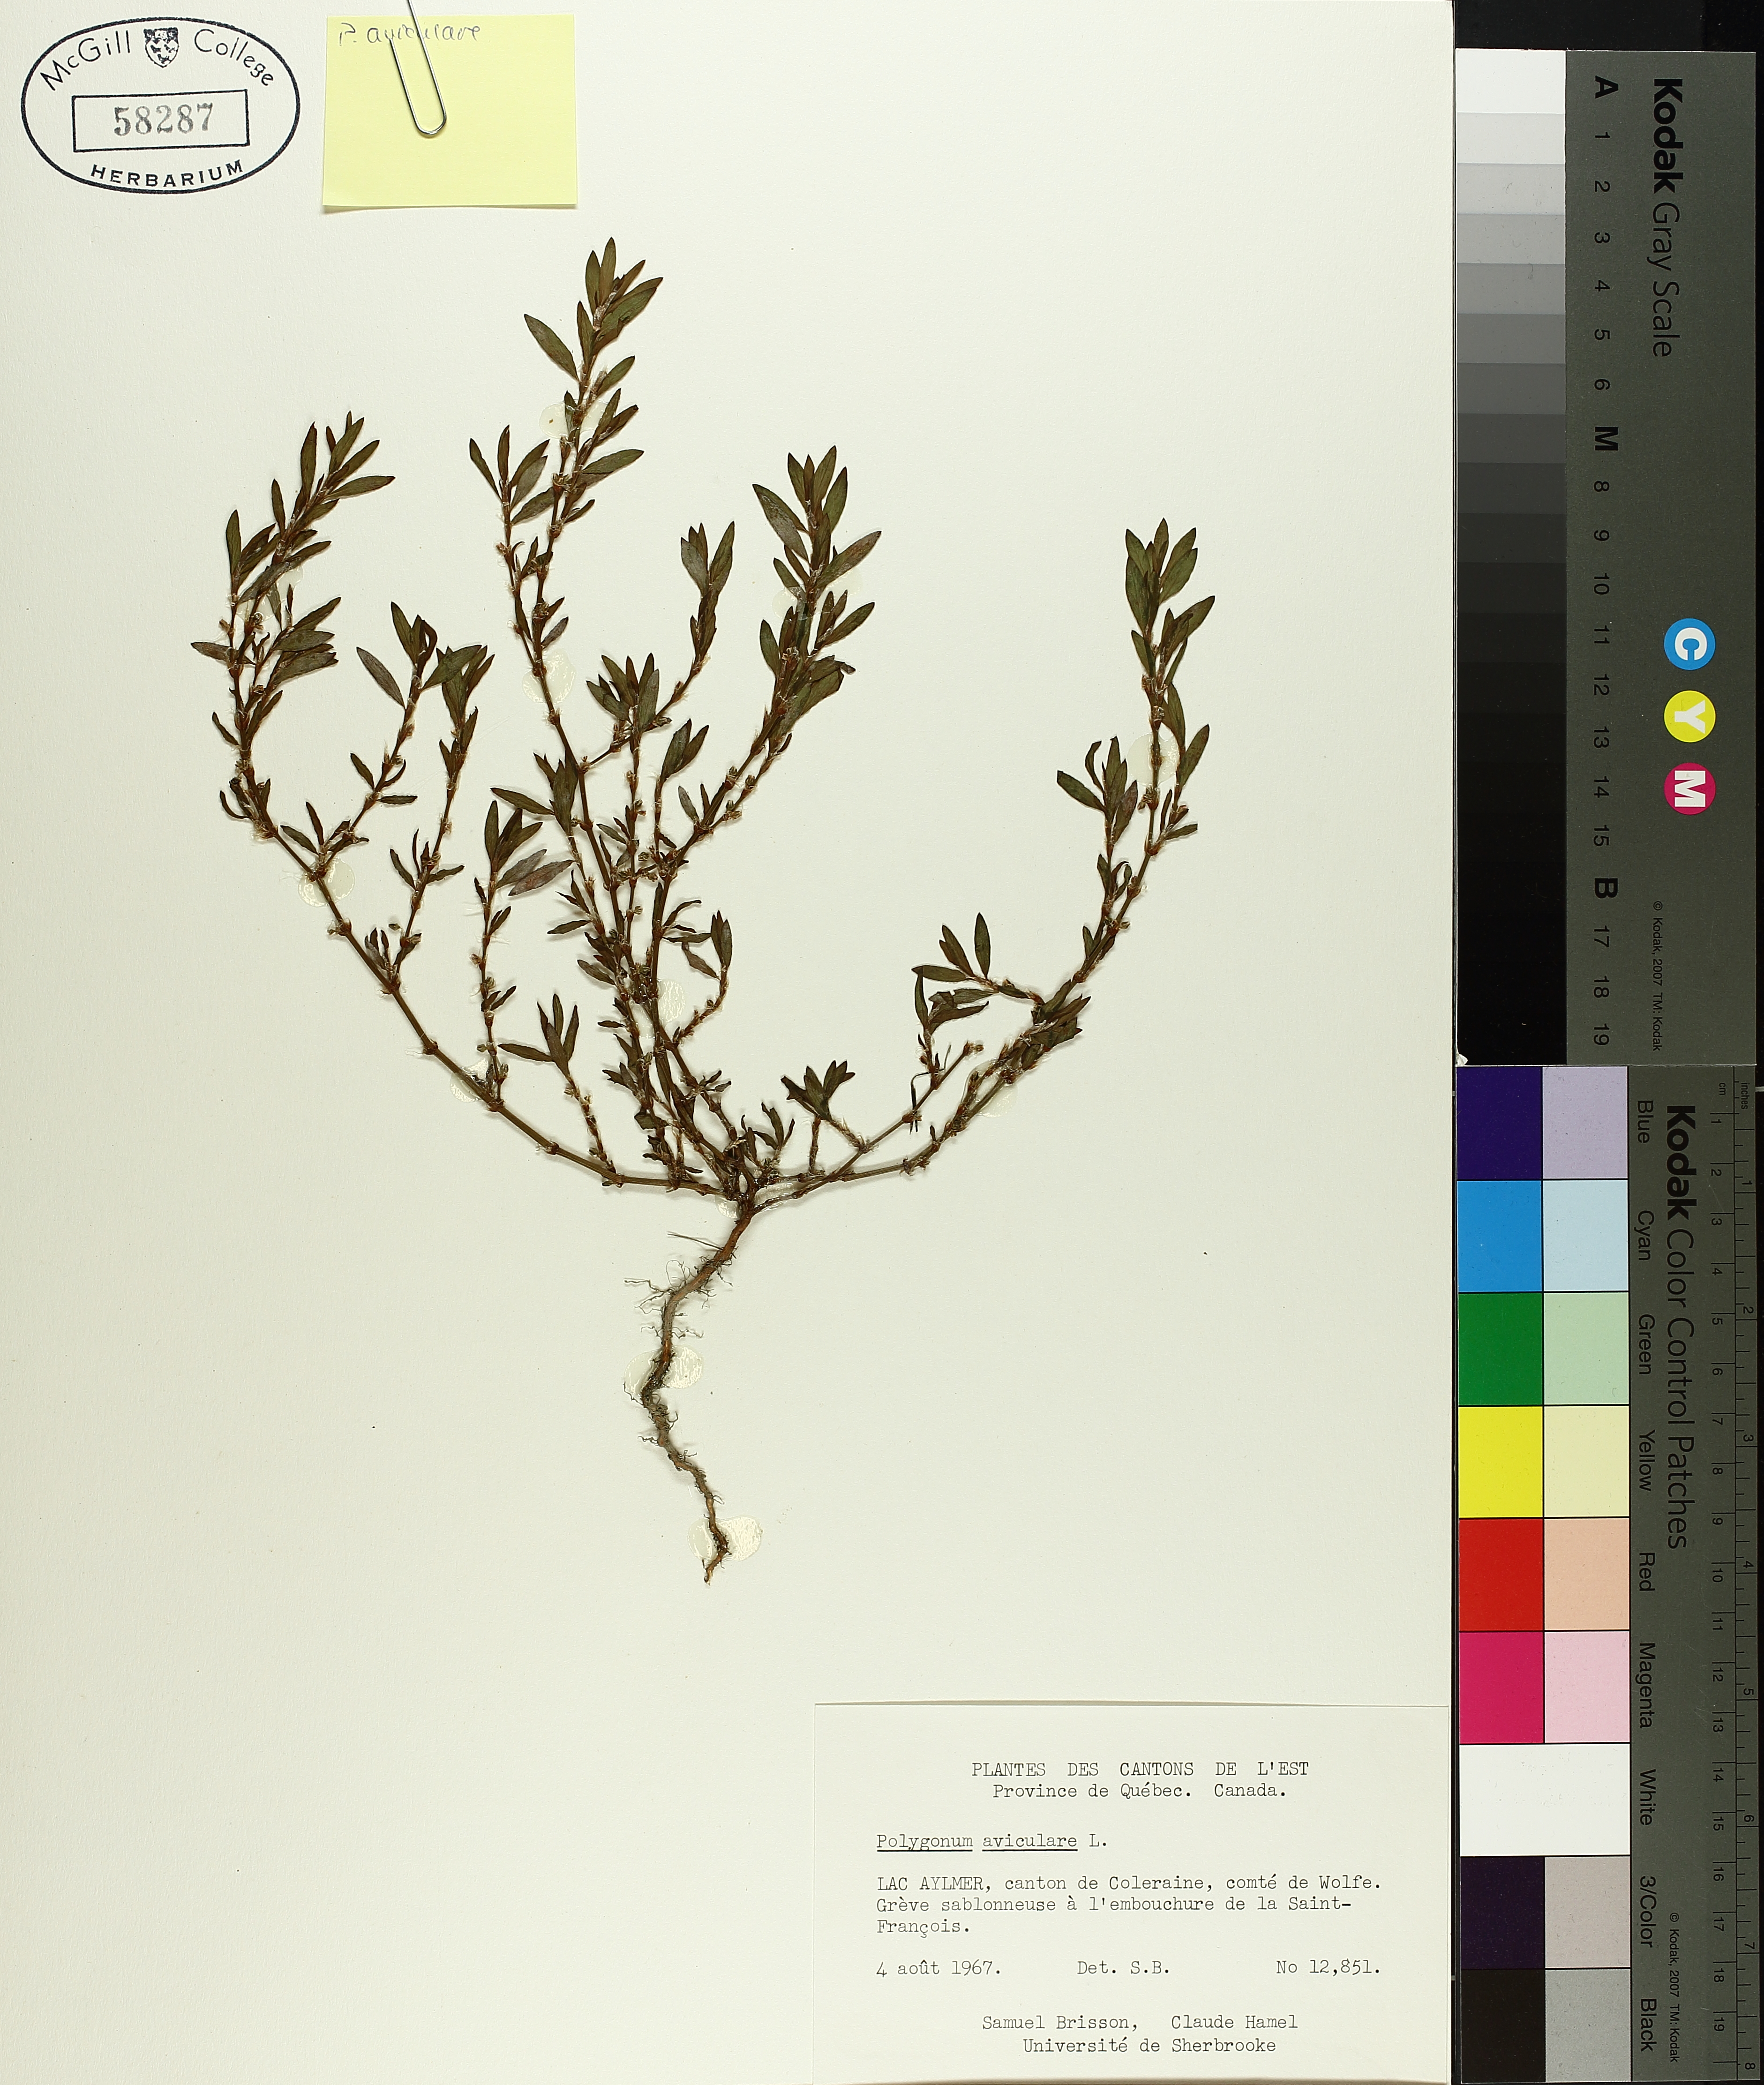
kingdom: Plantae
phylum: Tracheophyta
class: Magnoliopsida
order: Caryophyllales
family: Polygonaceae
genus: Polygonum
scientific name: Polygonum aviculare
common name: Prostrate knotweed
